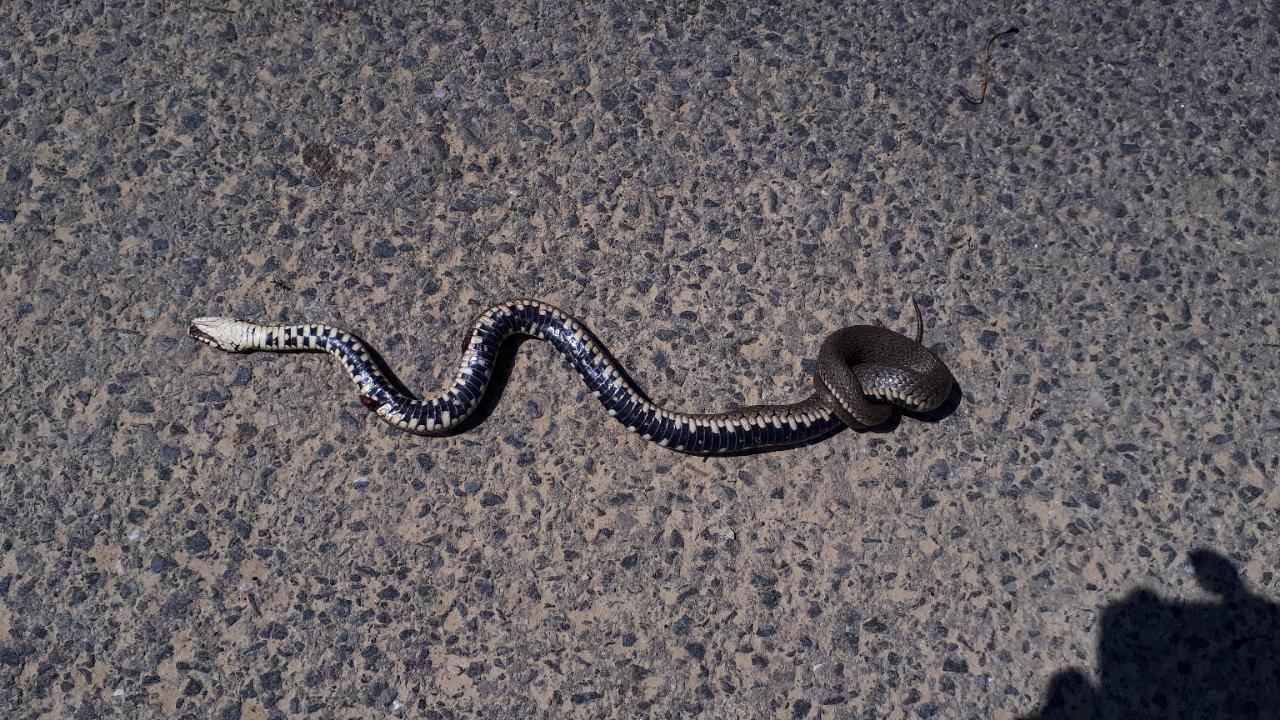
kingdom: Animalia
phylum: Chordata
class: Squamata
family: Colubridae
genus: Natrix
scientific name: Natrix natrix
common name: Grass snake
